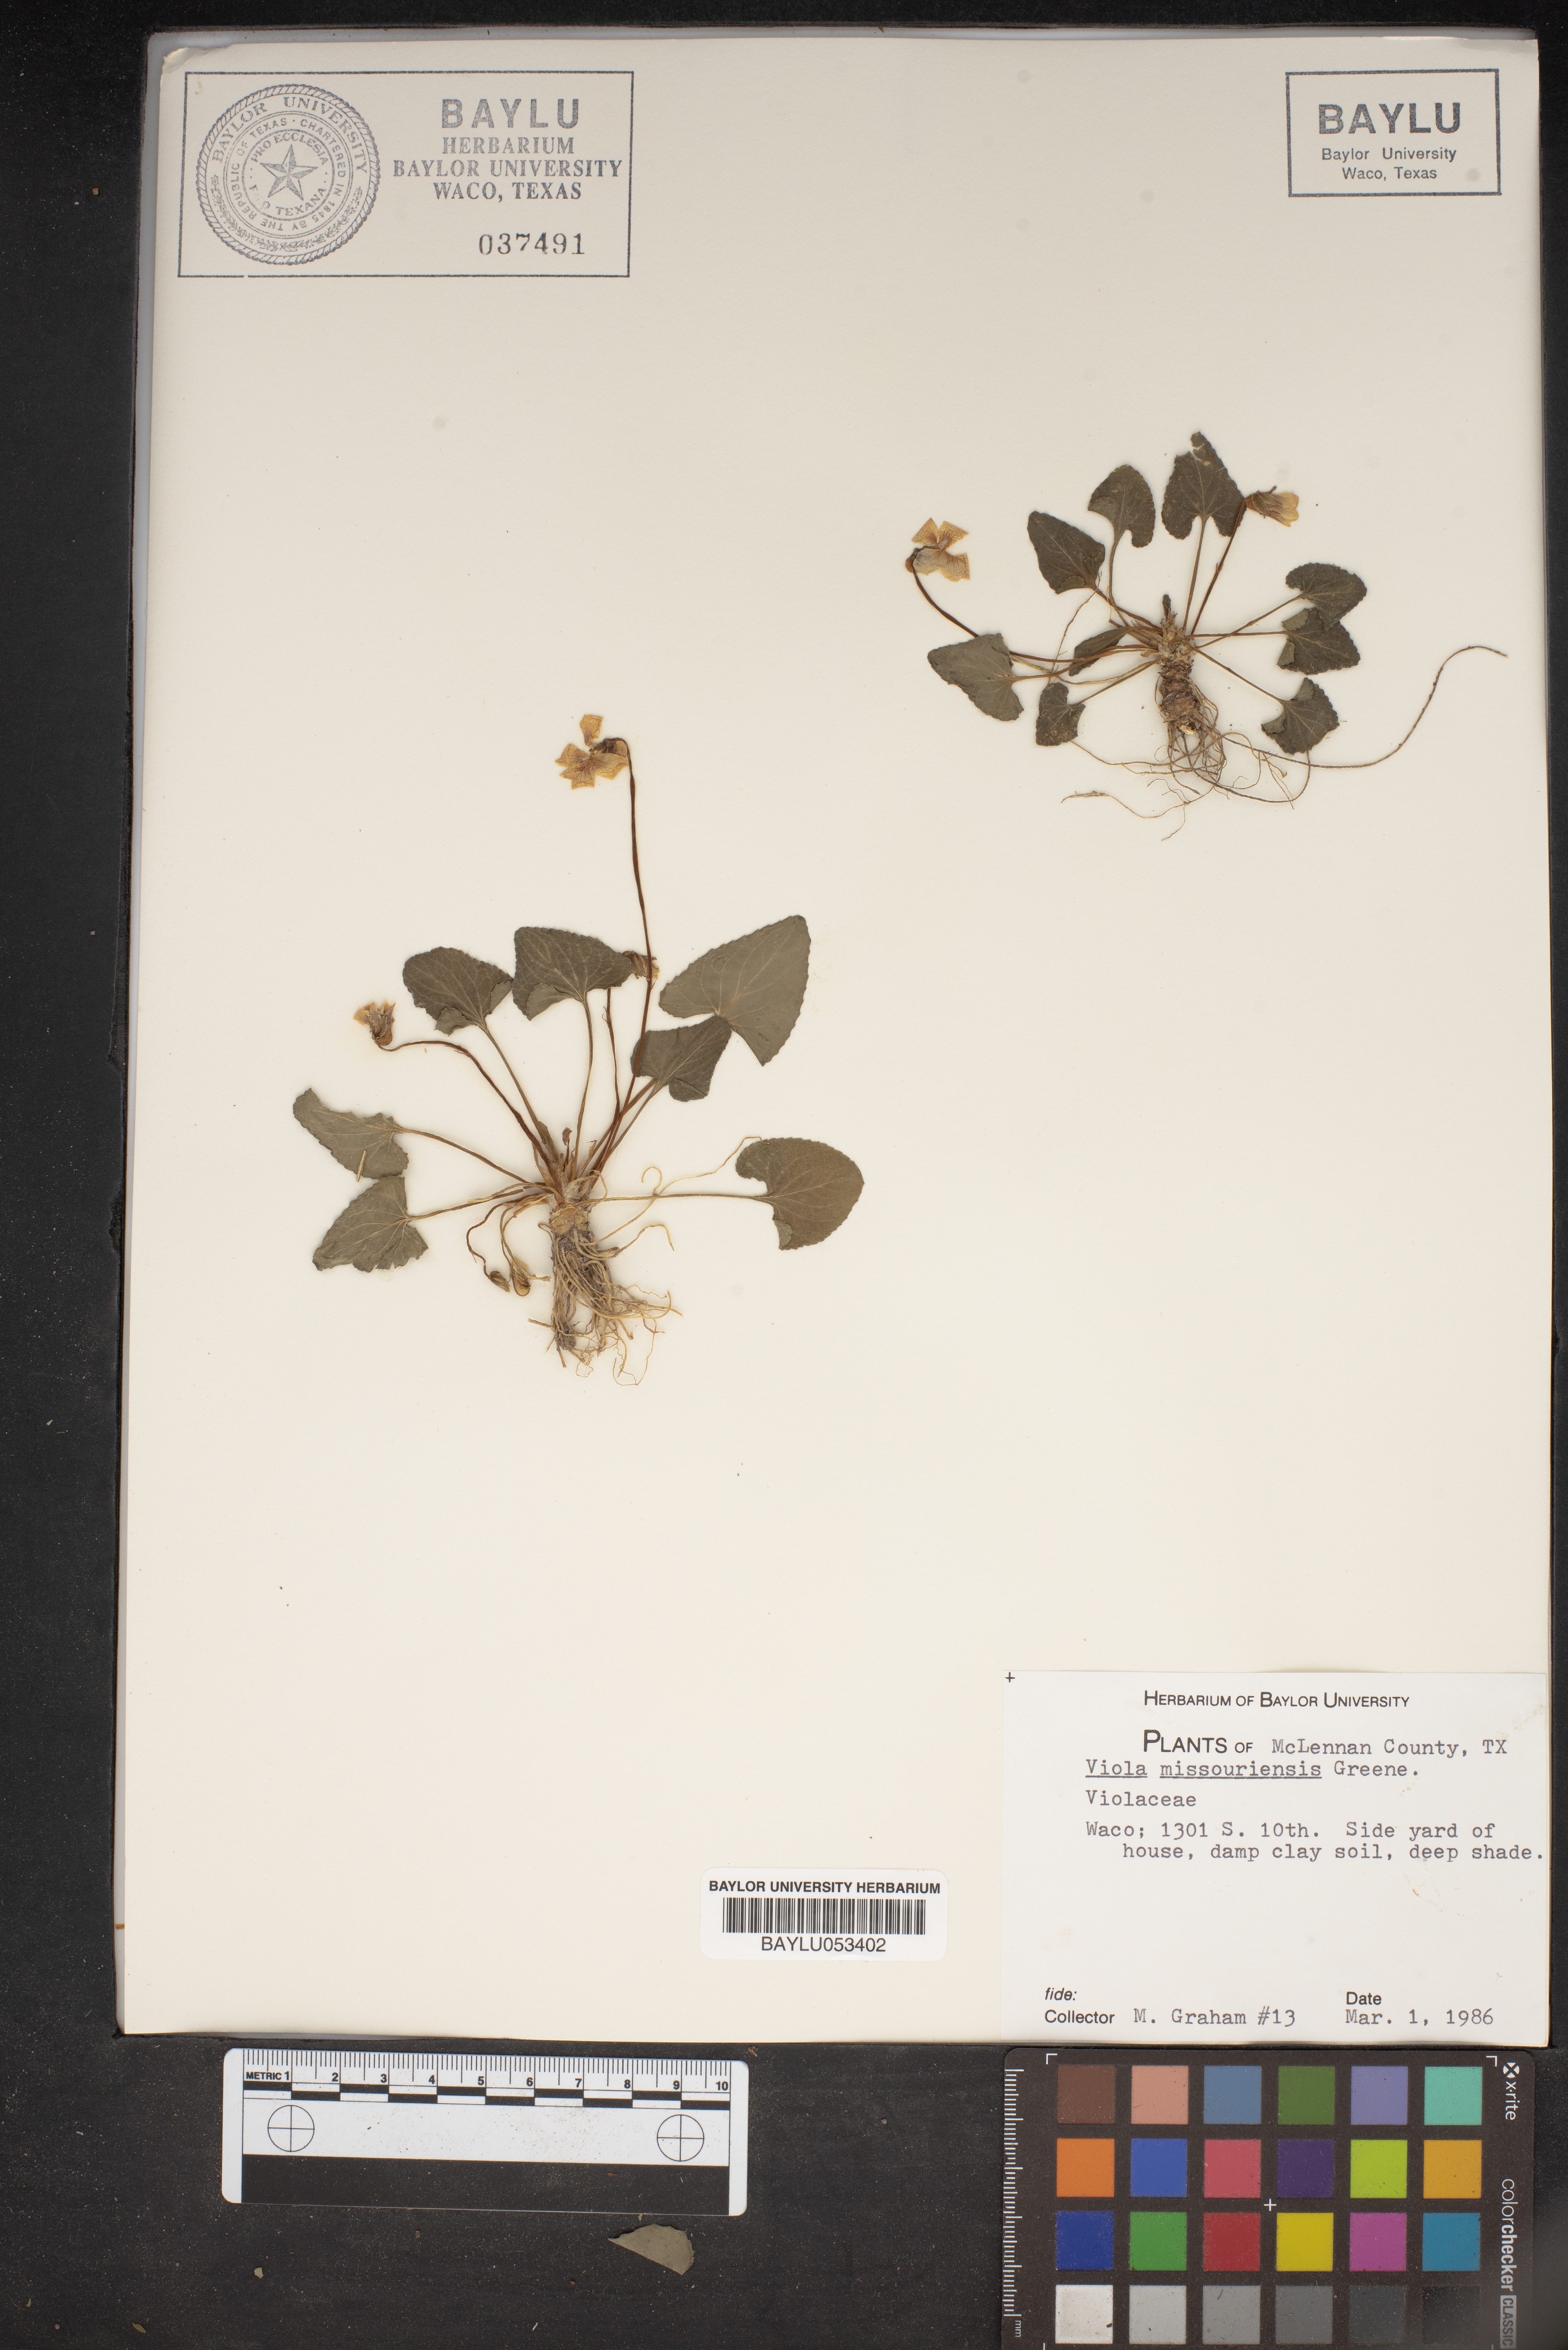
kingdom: Plantae
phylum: Tracheophyta
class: Magnoliopsida
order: Malpighiales
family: Violaceae
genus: Viola
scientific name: Viola missouriensis
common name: Missouri violet
